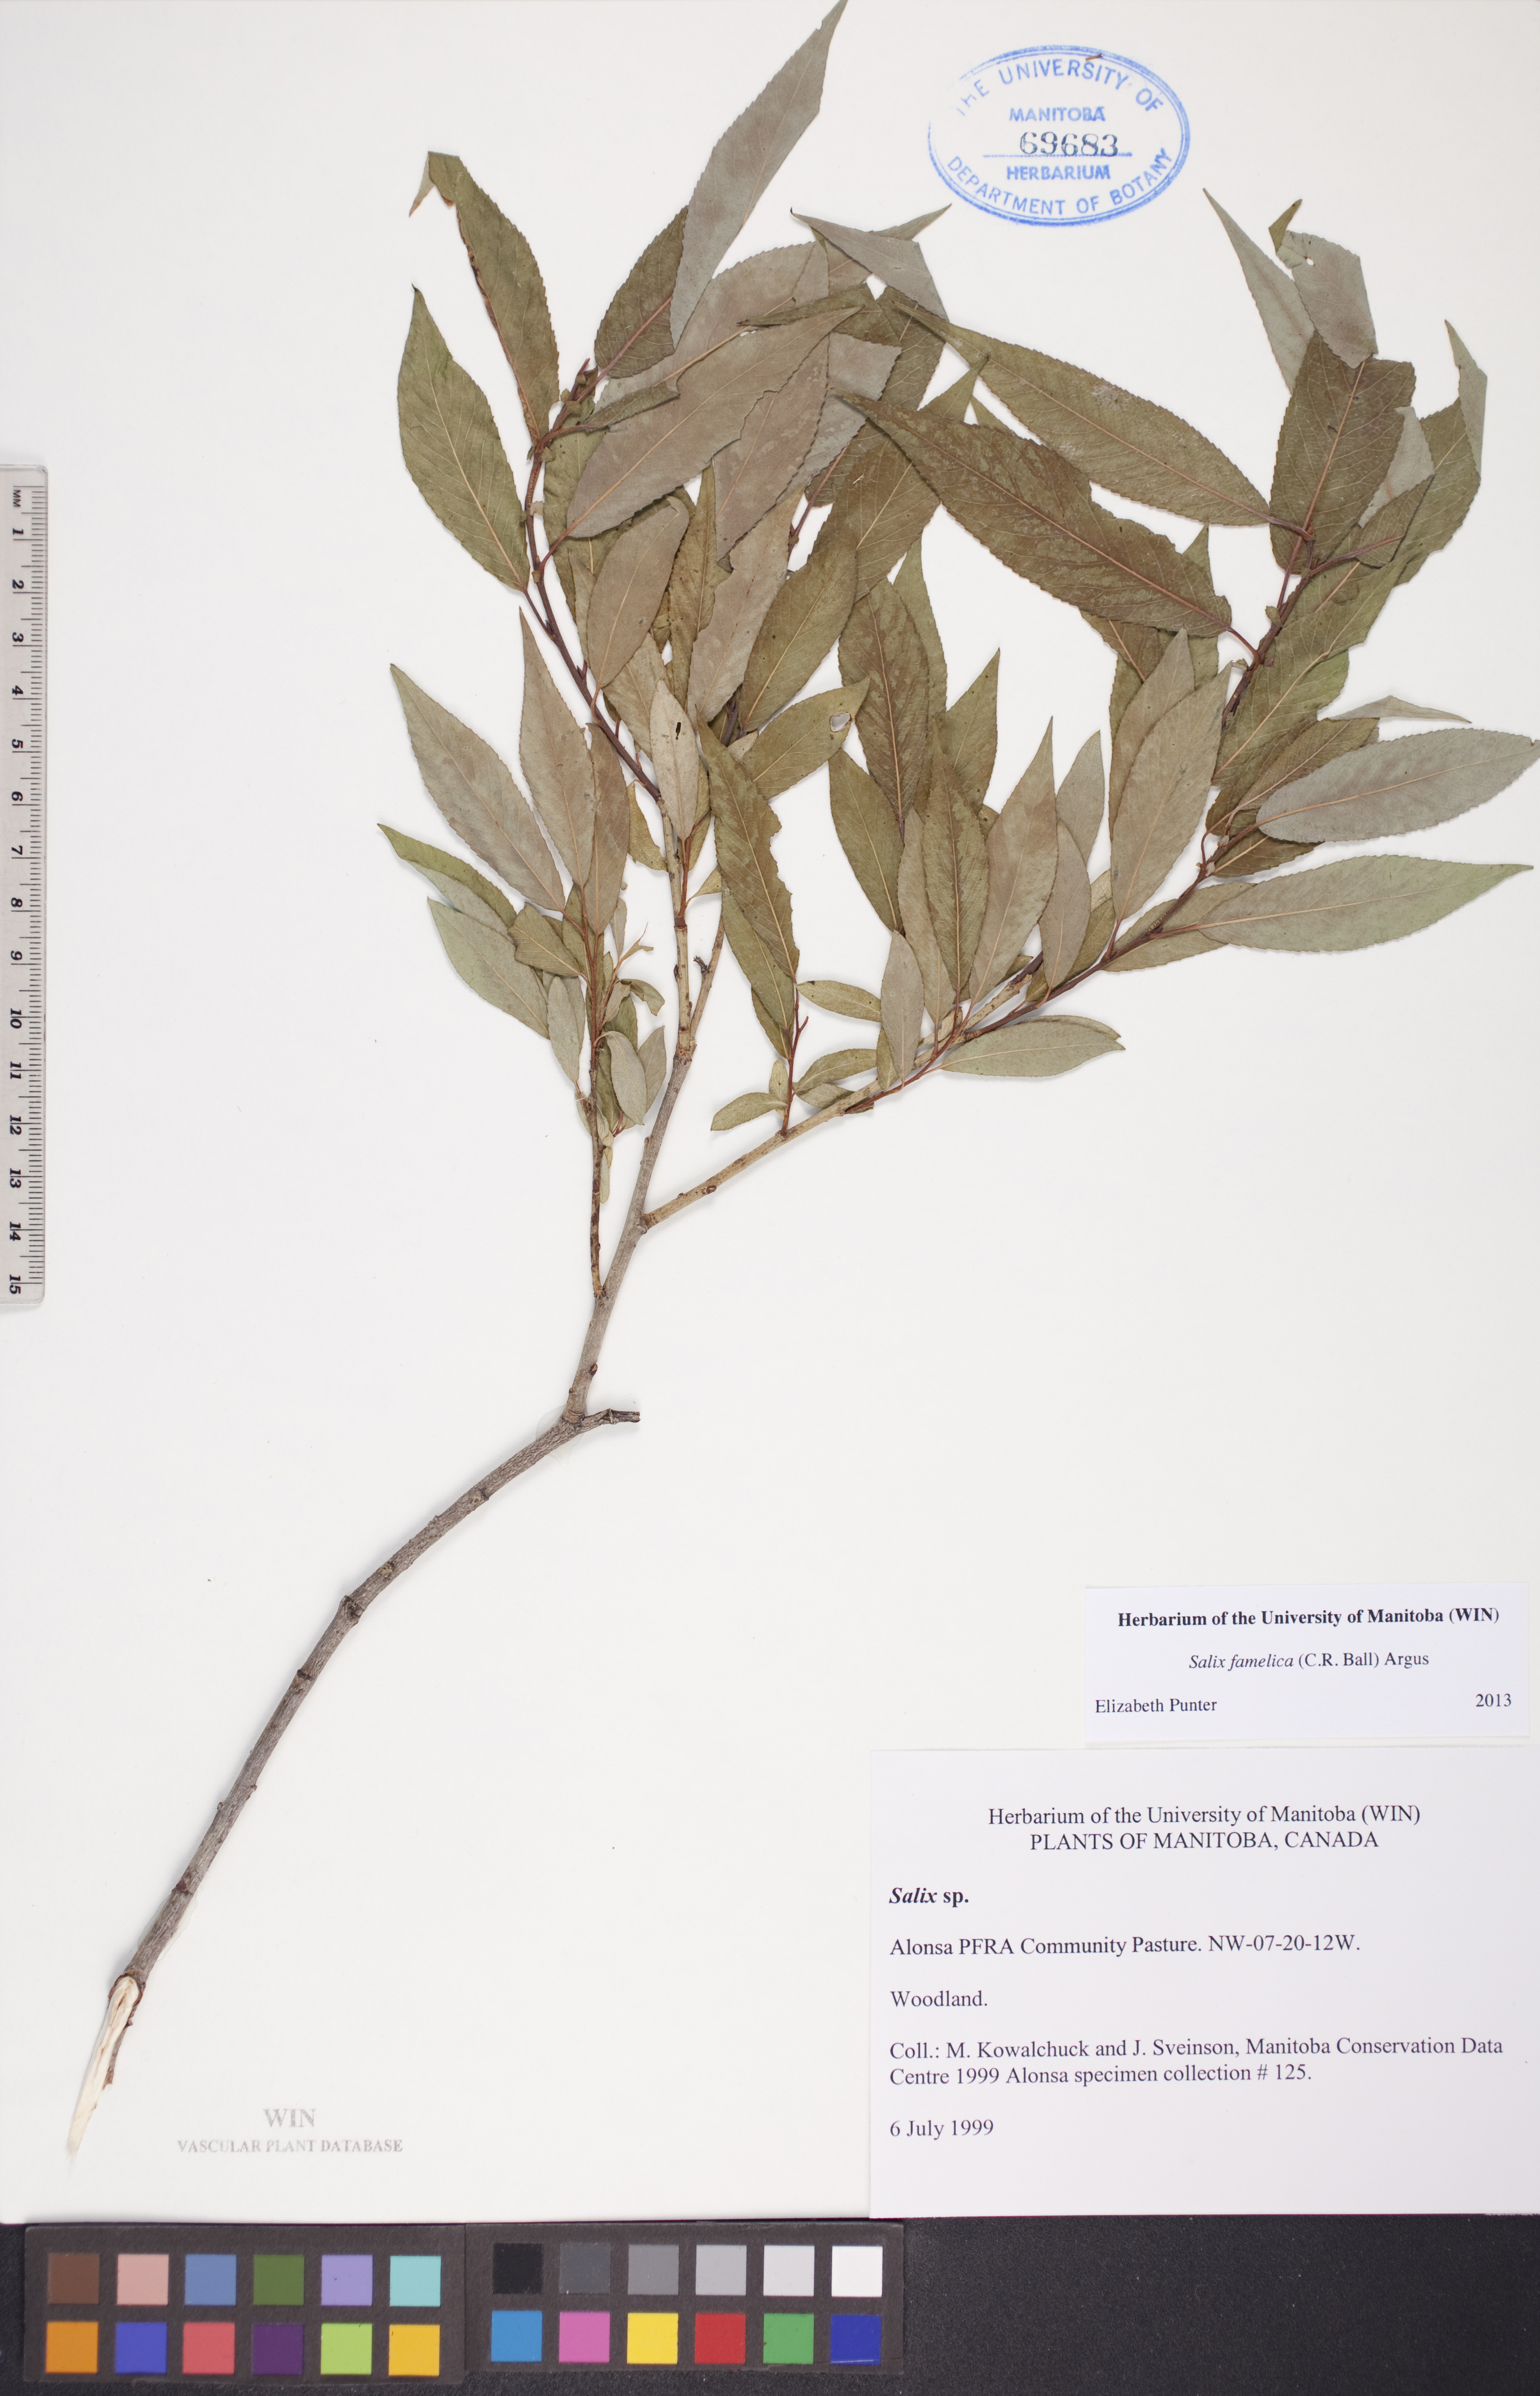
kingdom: Plantae
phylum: Tracheophyta
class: Magnoliopsida
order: Malpighiales
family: Salicaceae
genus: Salix
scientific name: Salix famelica
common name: Hungry willow
